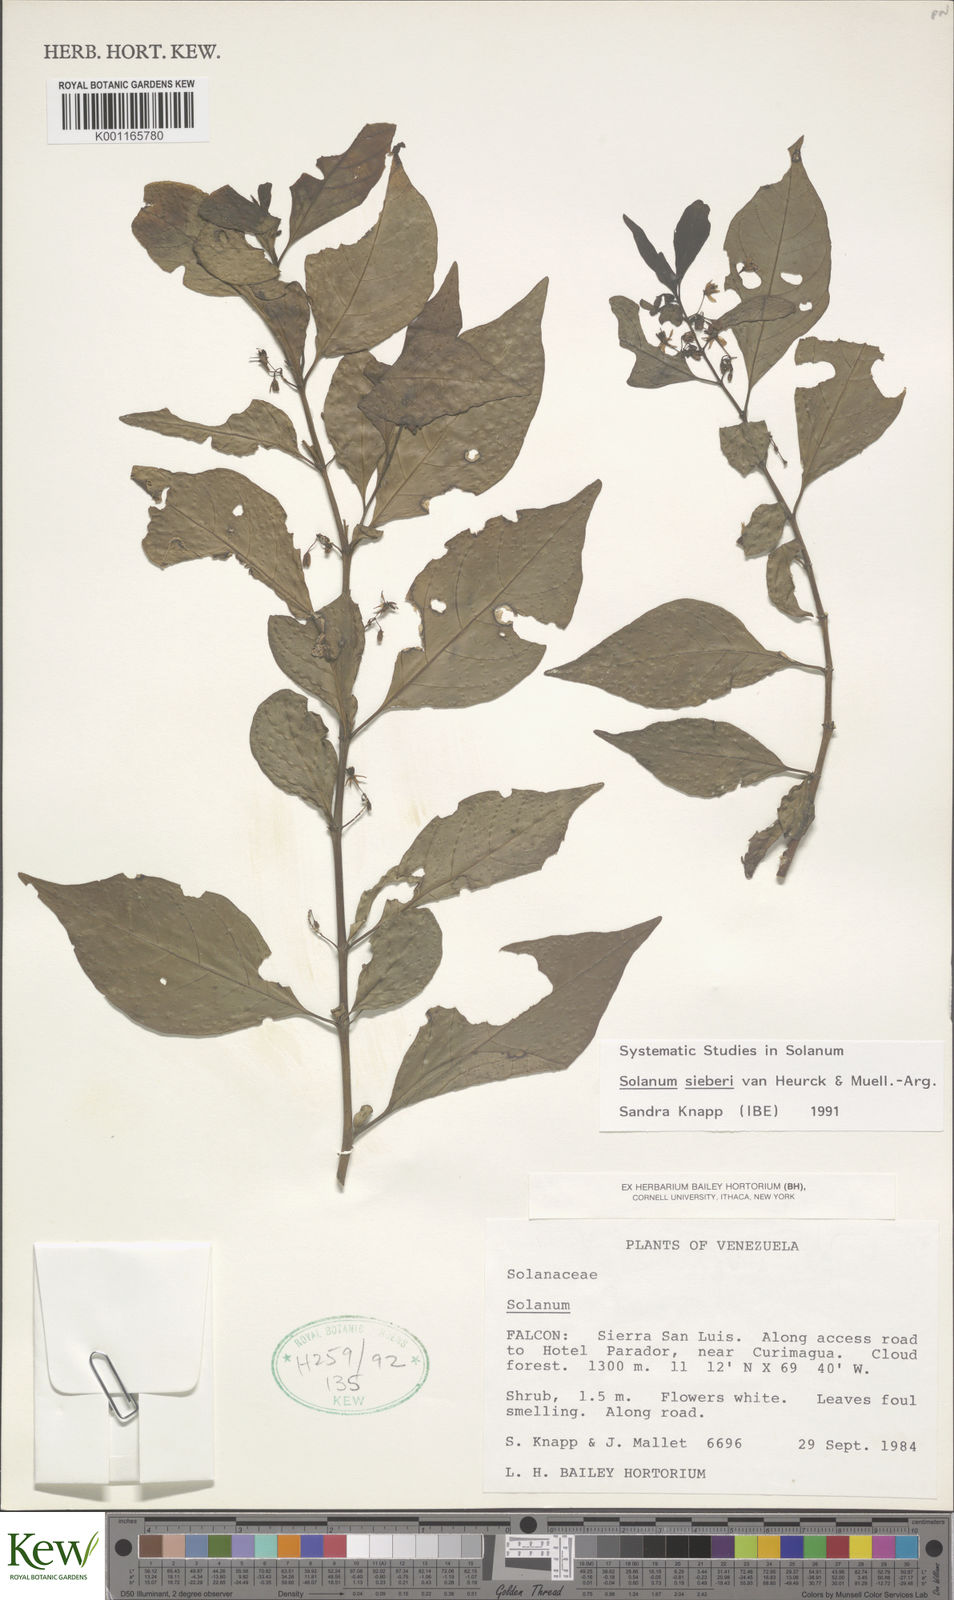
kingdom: Plantae
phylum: Tracheophyta
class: Magnoliopsida
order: Solanales
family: Solanaceae
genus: Solanum
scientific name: Solanum sieberi
